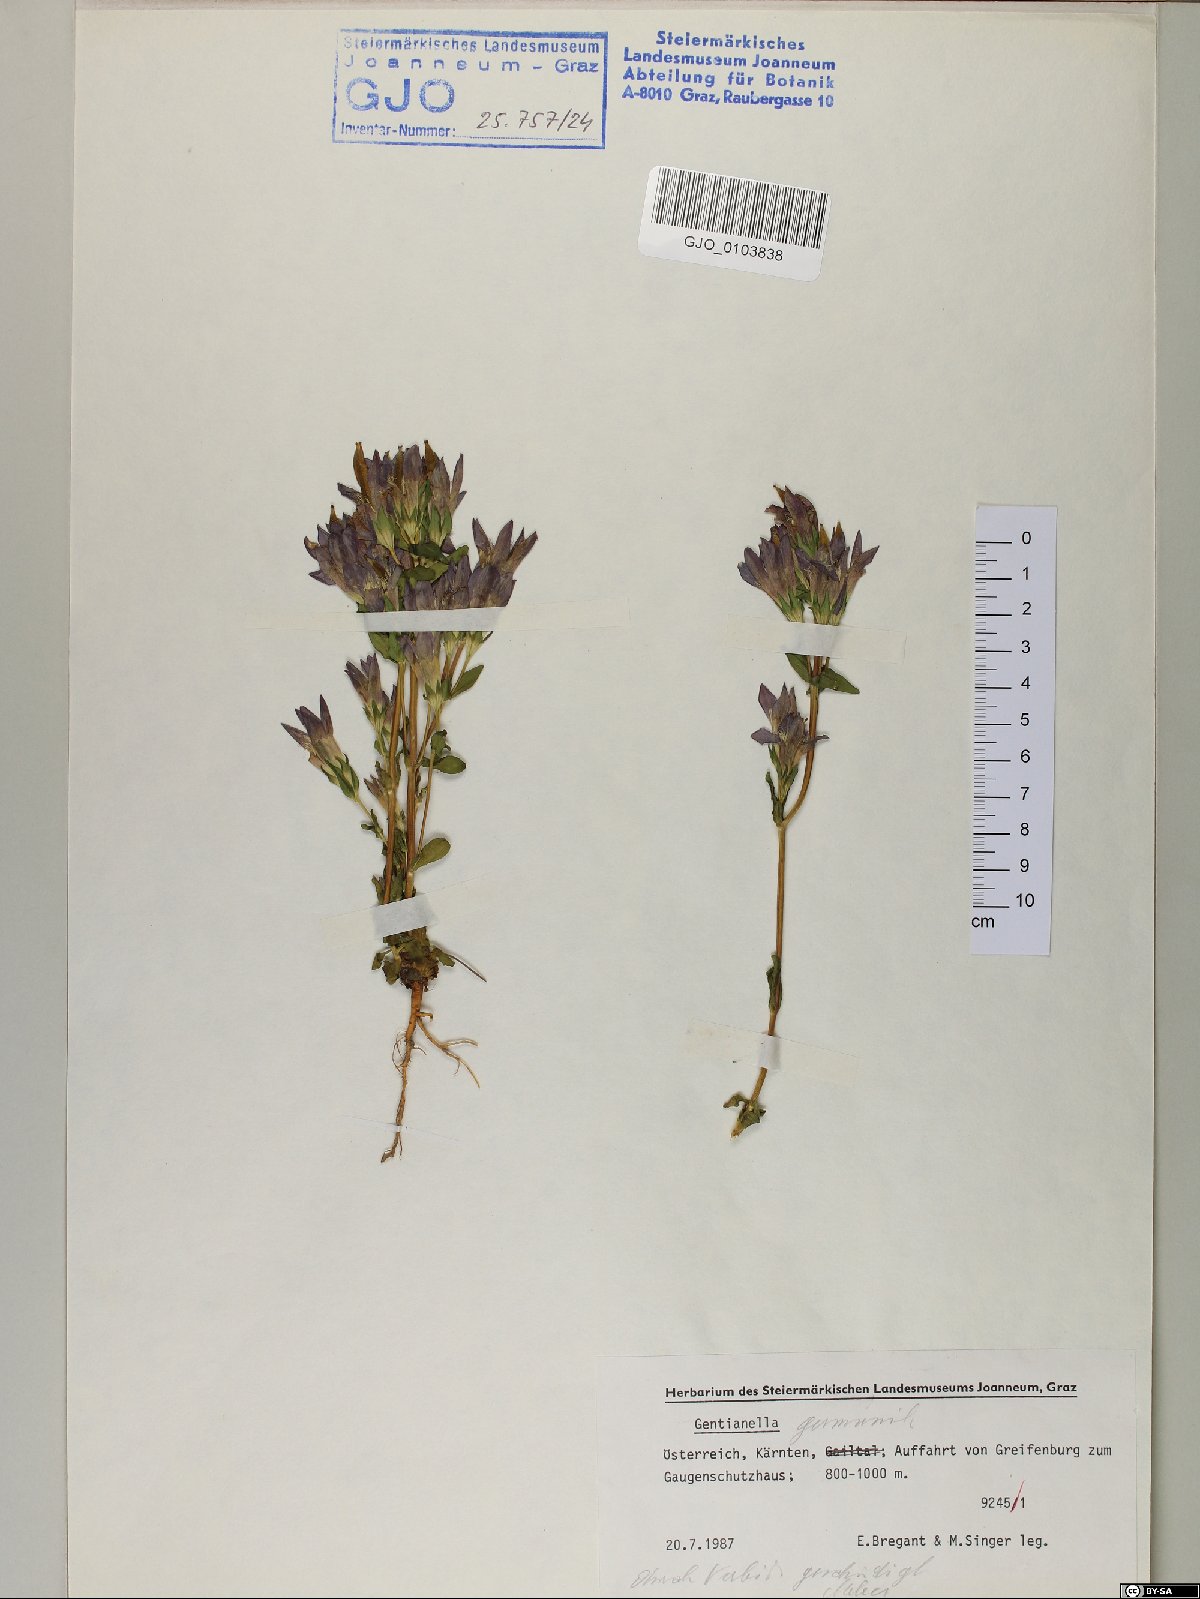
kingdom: Plantae
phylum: Tracheophyta
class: Magnoliopsida
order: Gentianales
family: Gentianaceae
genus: Gentianella
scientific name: Gentianella germanica
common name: Chiltern-gentian
